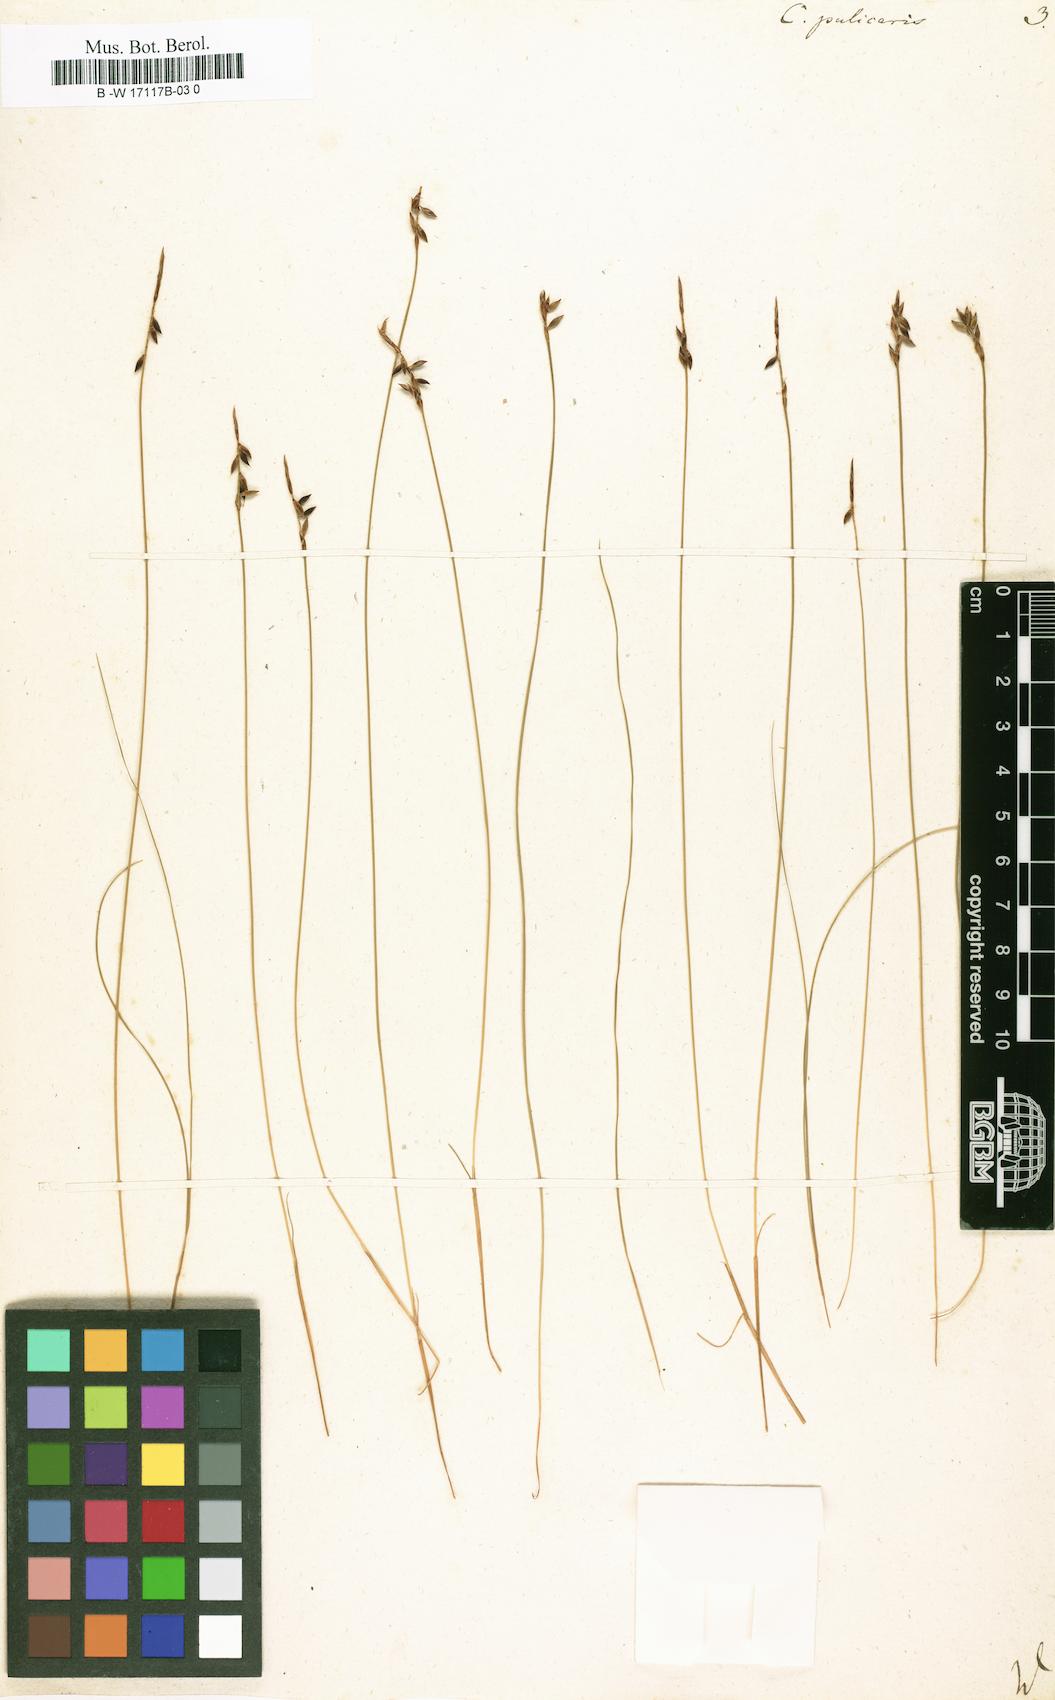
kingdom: Plantae
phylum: Tracheophyta
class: Liliopsida
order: Poales
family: Cyperaceae
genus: Carex
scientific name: Carex pulicaris
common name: Flea sedge
